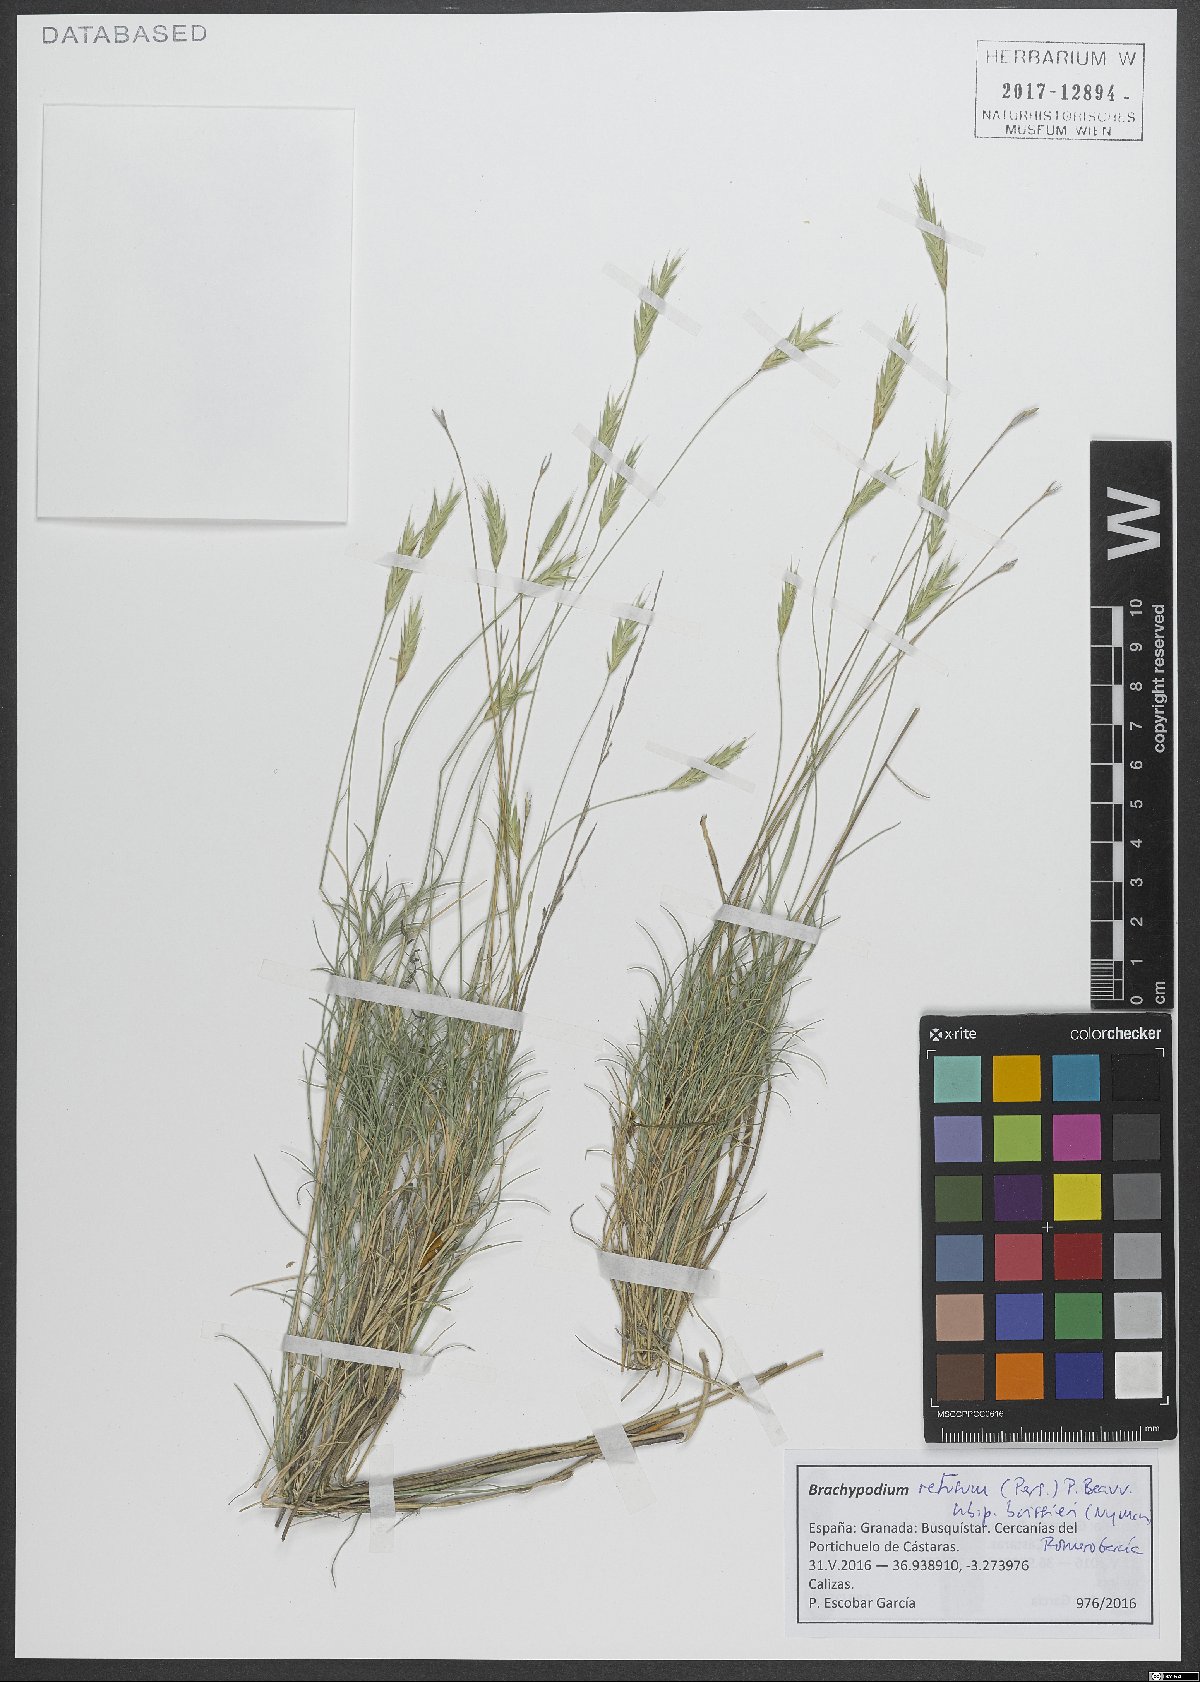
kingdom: Plantae
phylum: Tracheophyta
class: Liliopsida
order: Poales
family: Poaceae
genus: Brachypodium
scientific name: Brachypodium retusum
